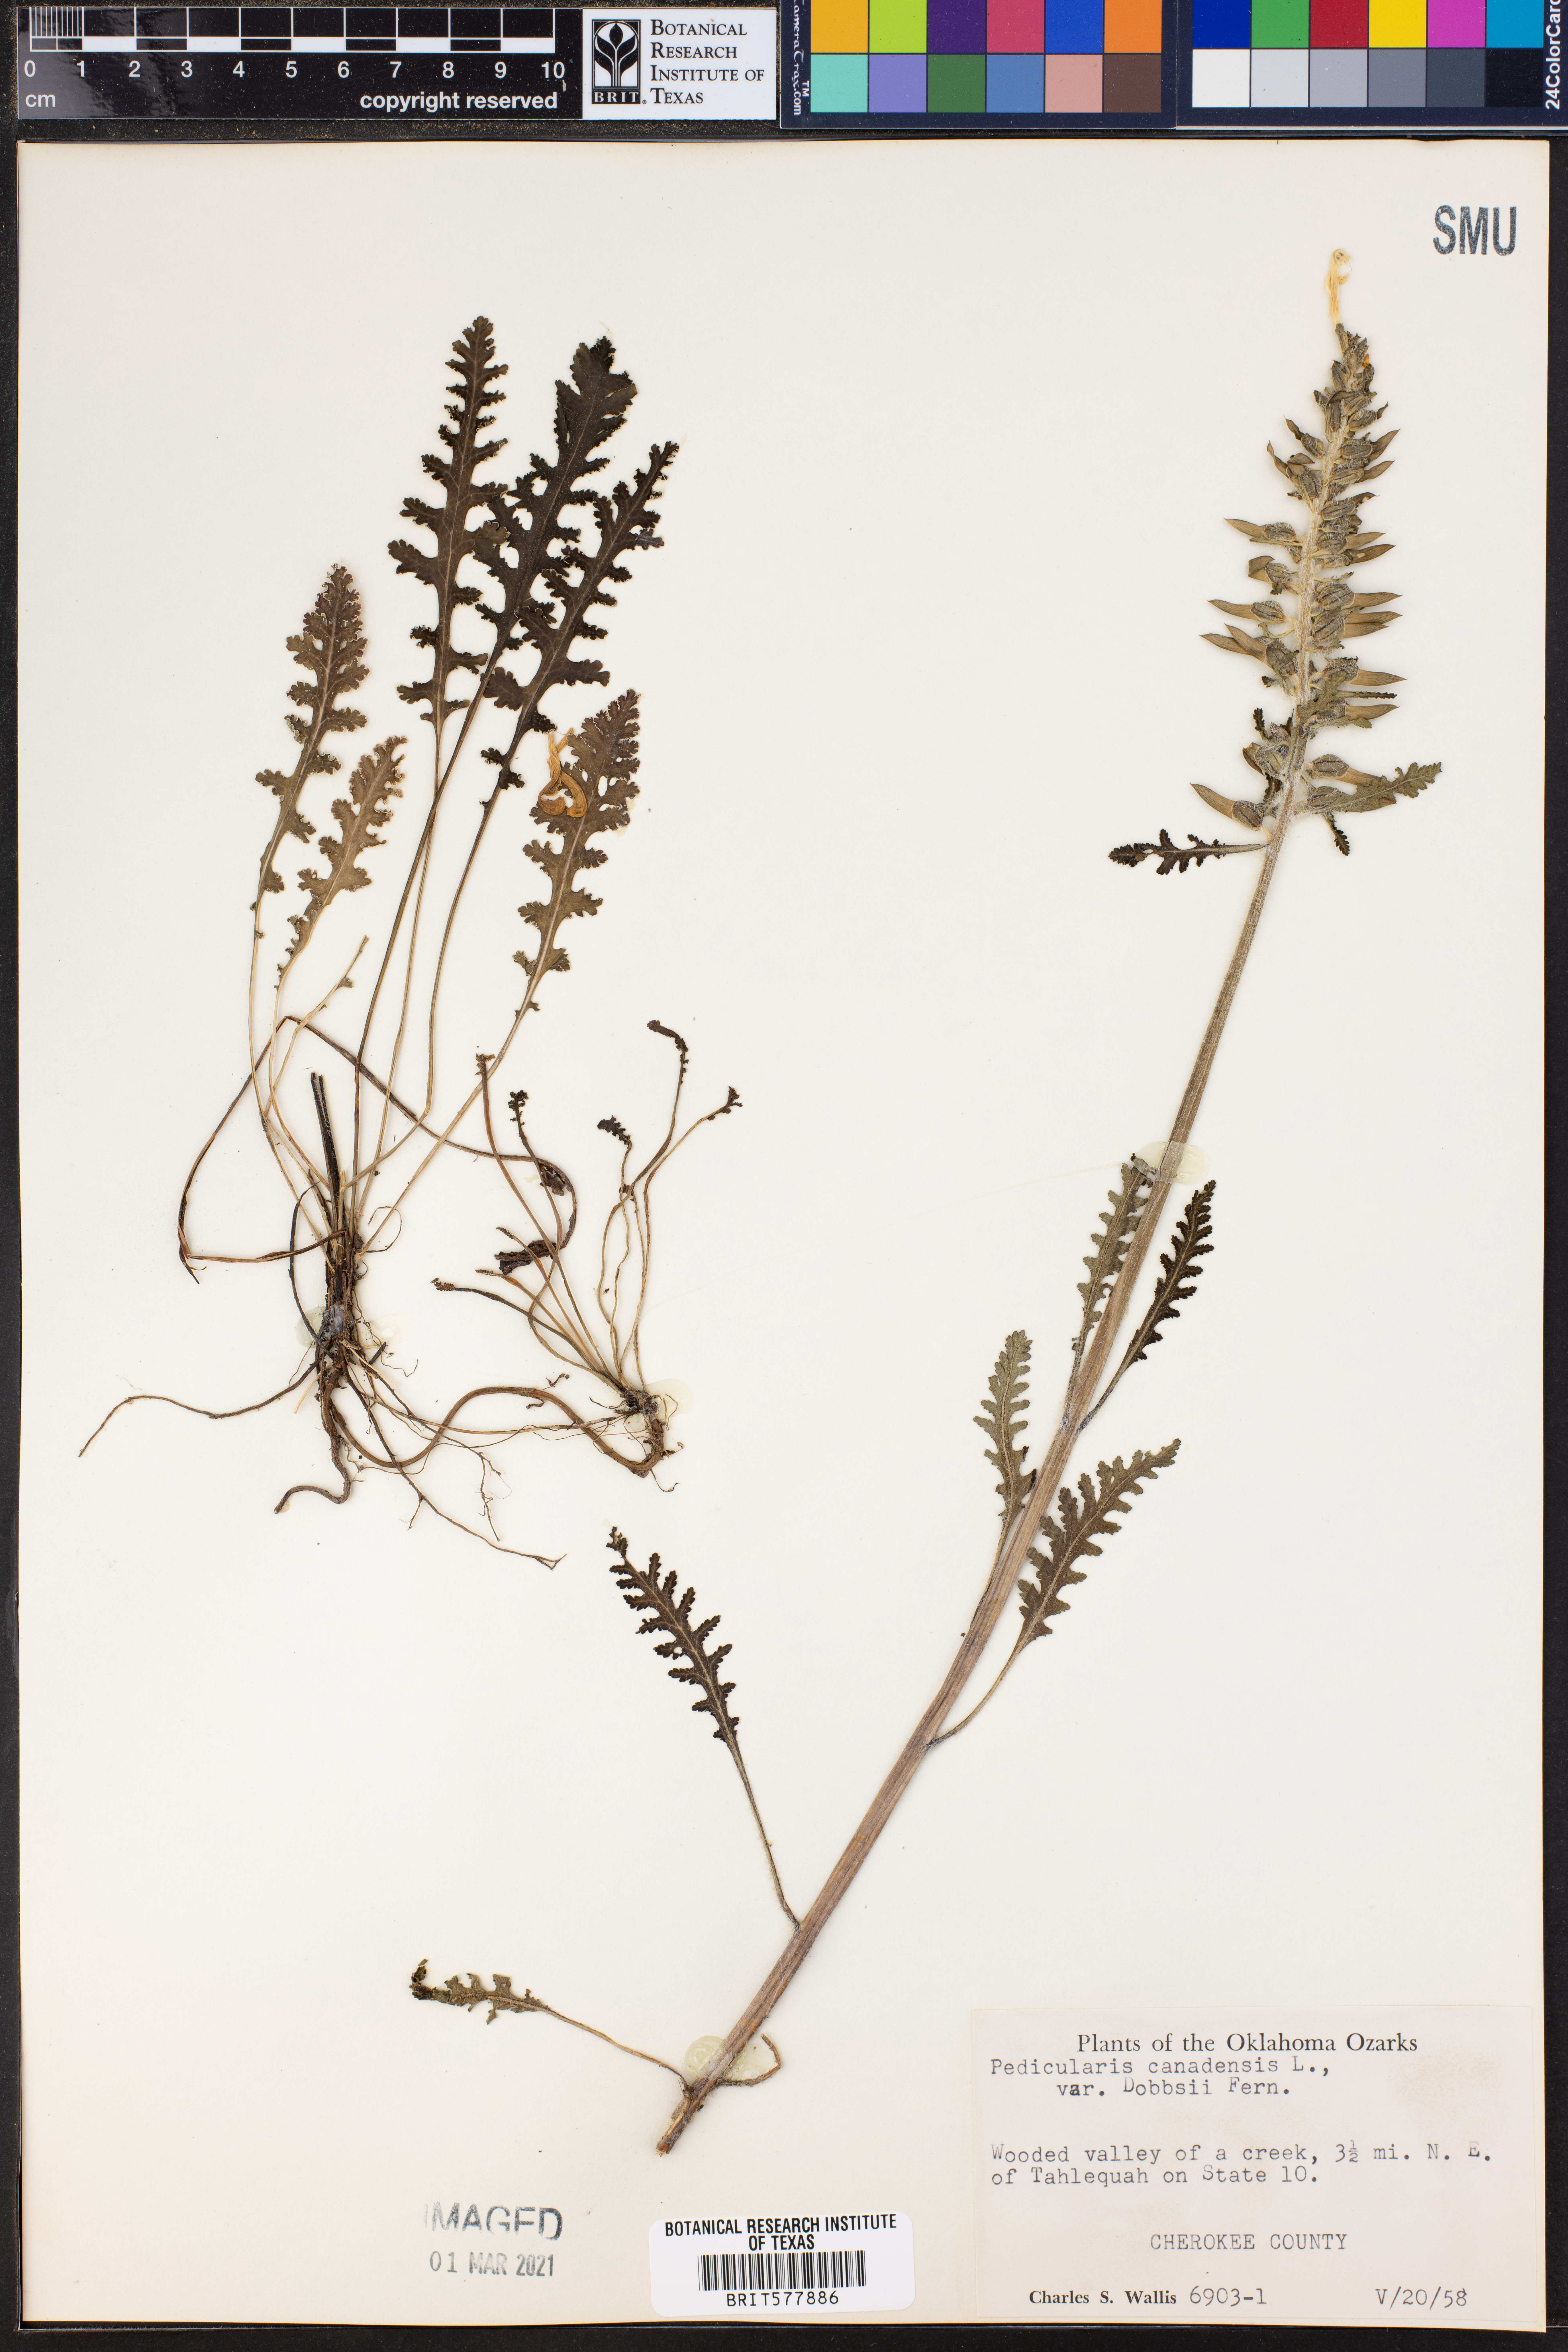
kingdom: Plantae
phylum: Tracheophyta
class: Magnoliopsida
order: Lamiales
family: Orobanchaceae
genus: Pedicularis
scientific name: Pedicularis canadensis
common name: Early lousewort
